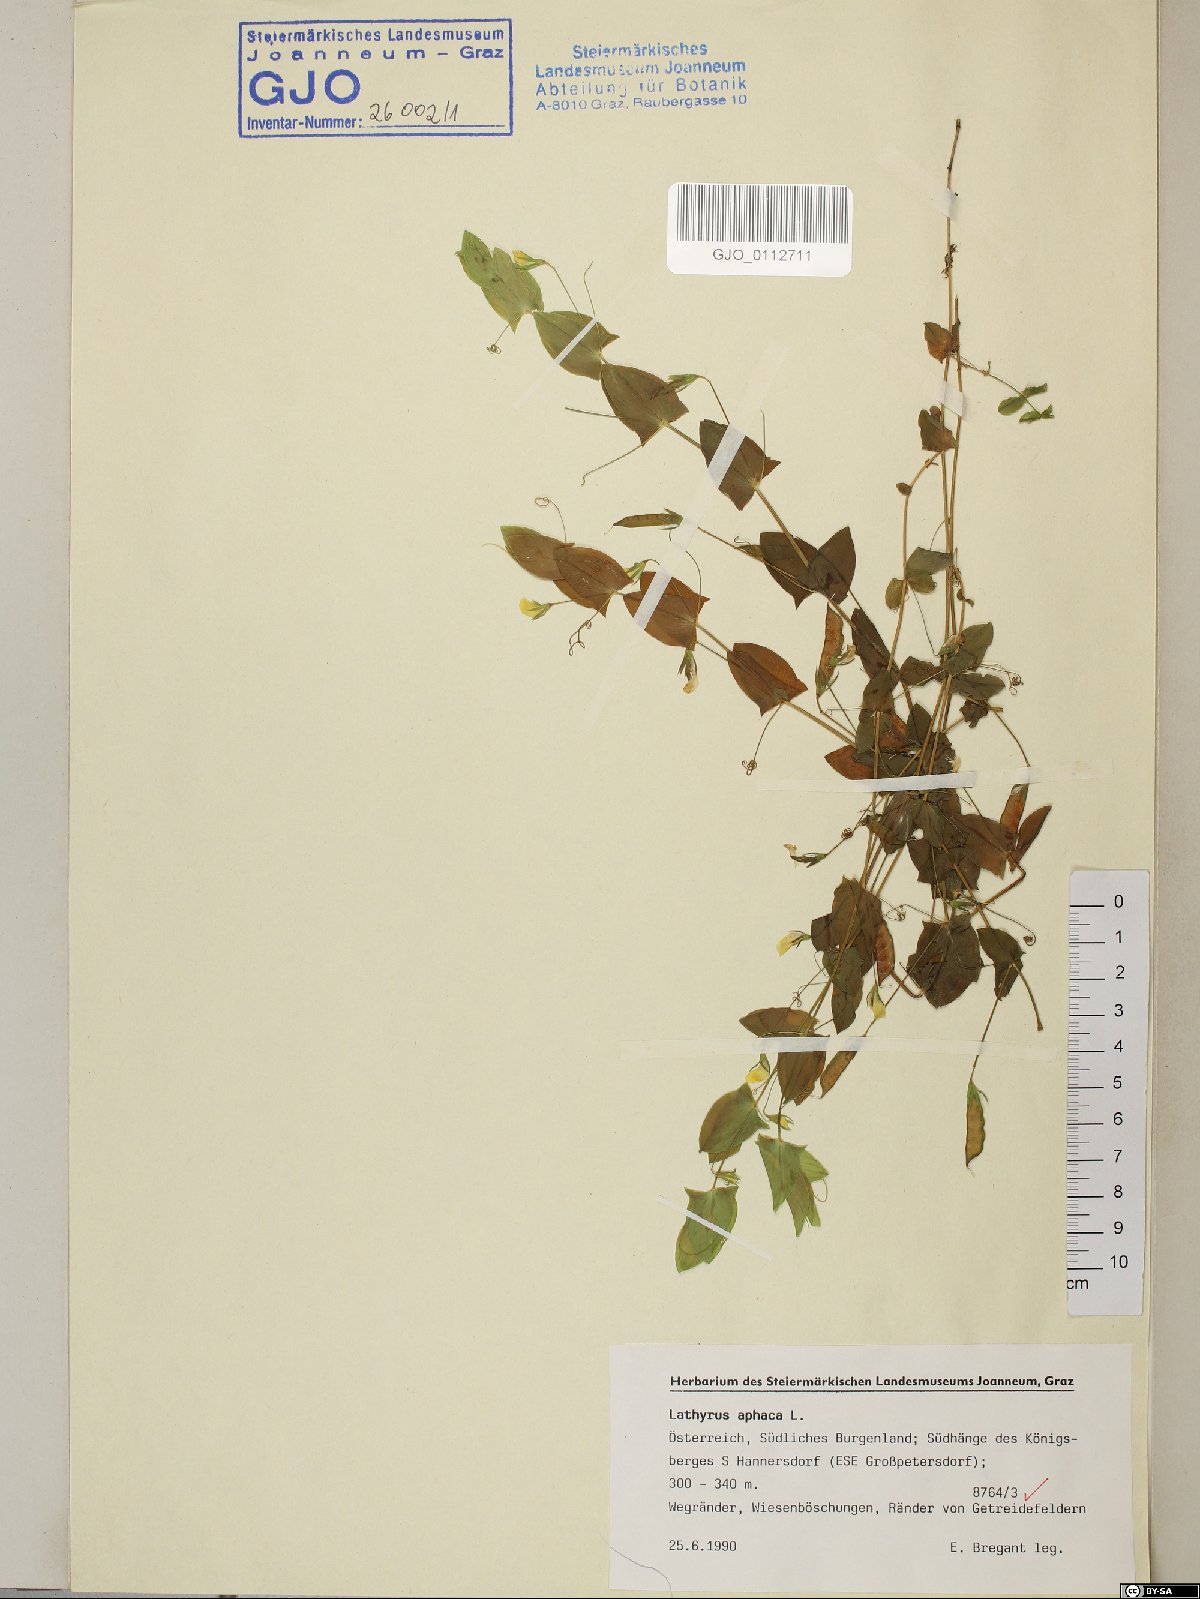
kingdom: Plantae
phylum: Tracheophyta
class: Magnoliopsida
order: Fabales
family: Fabaceae
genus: Lathyrus
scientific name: Lathyrus aphaca
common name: Yellow vetchling
